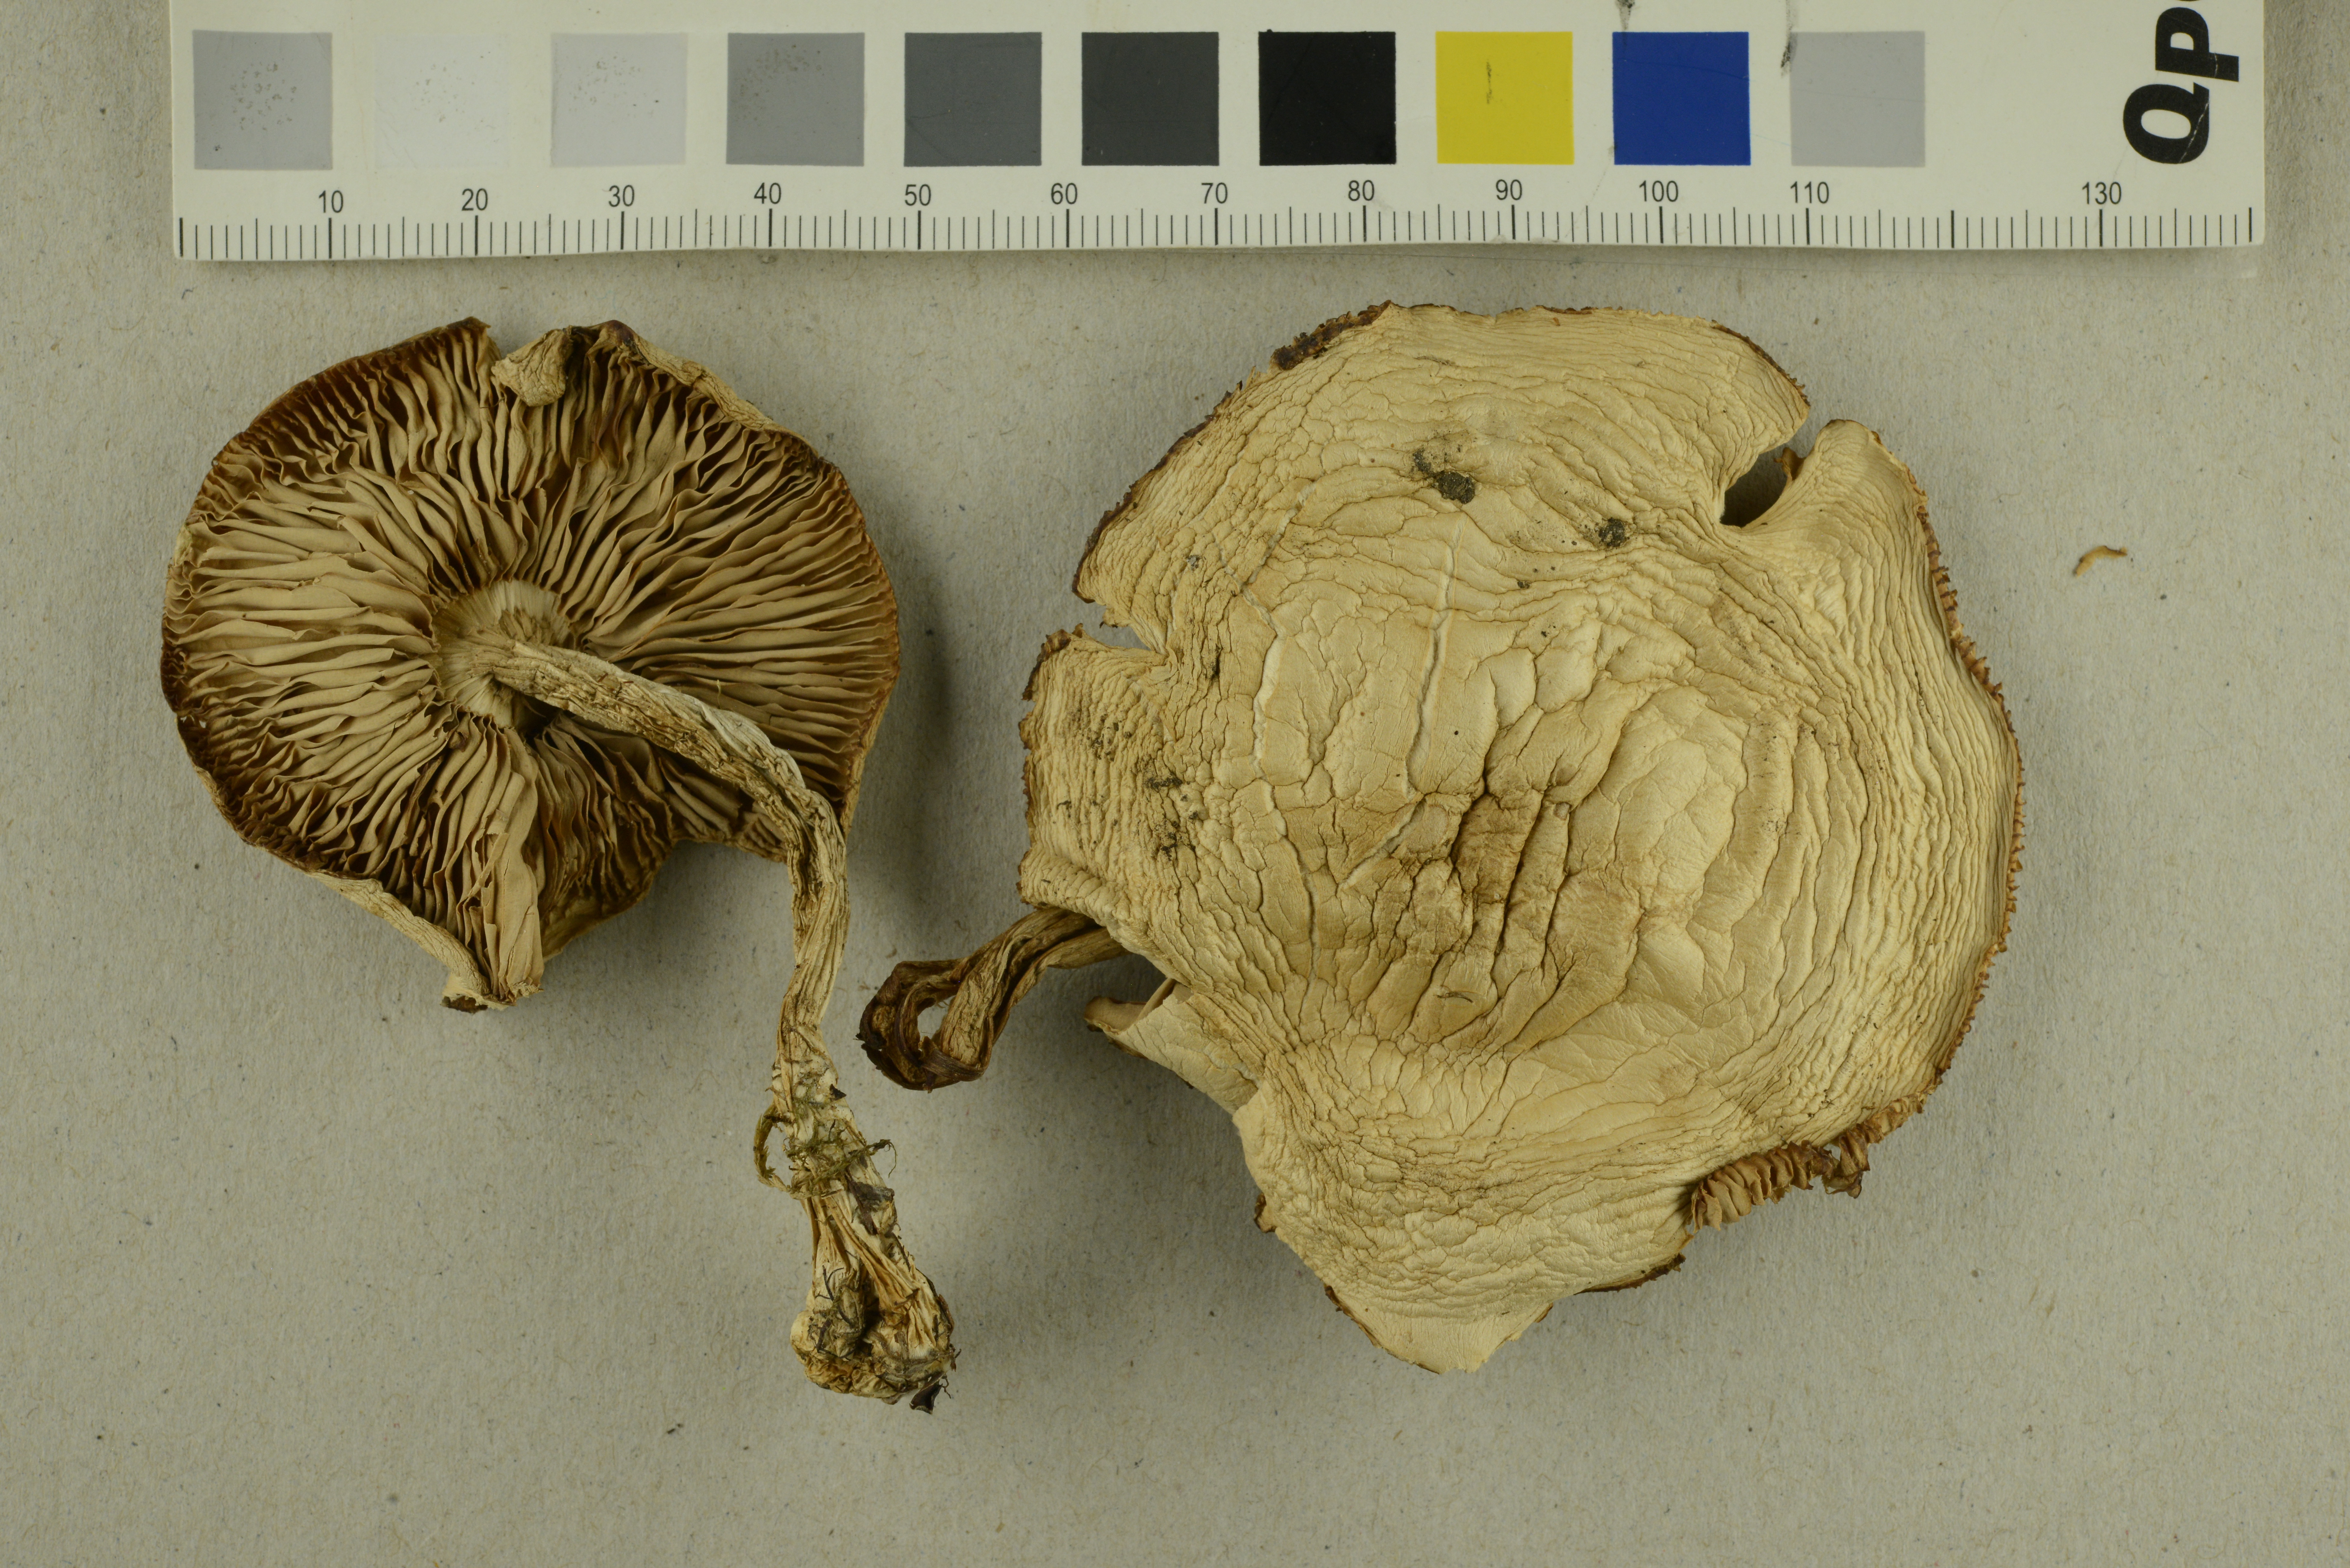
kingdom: Fungi
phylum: Basidiomycota
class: Agaricomycetes
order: Agaricales
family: Tricholomataceae
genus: Tricholoma
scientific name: Tricholoma stiparophyllum
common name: Chemical knight
